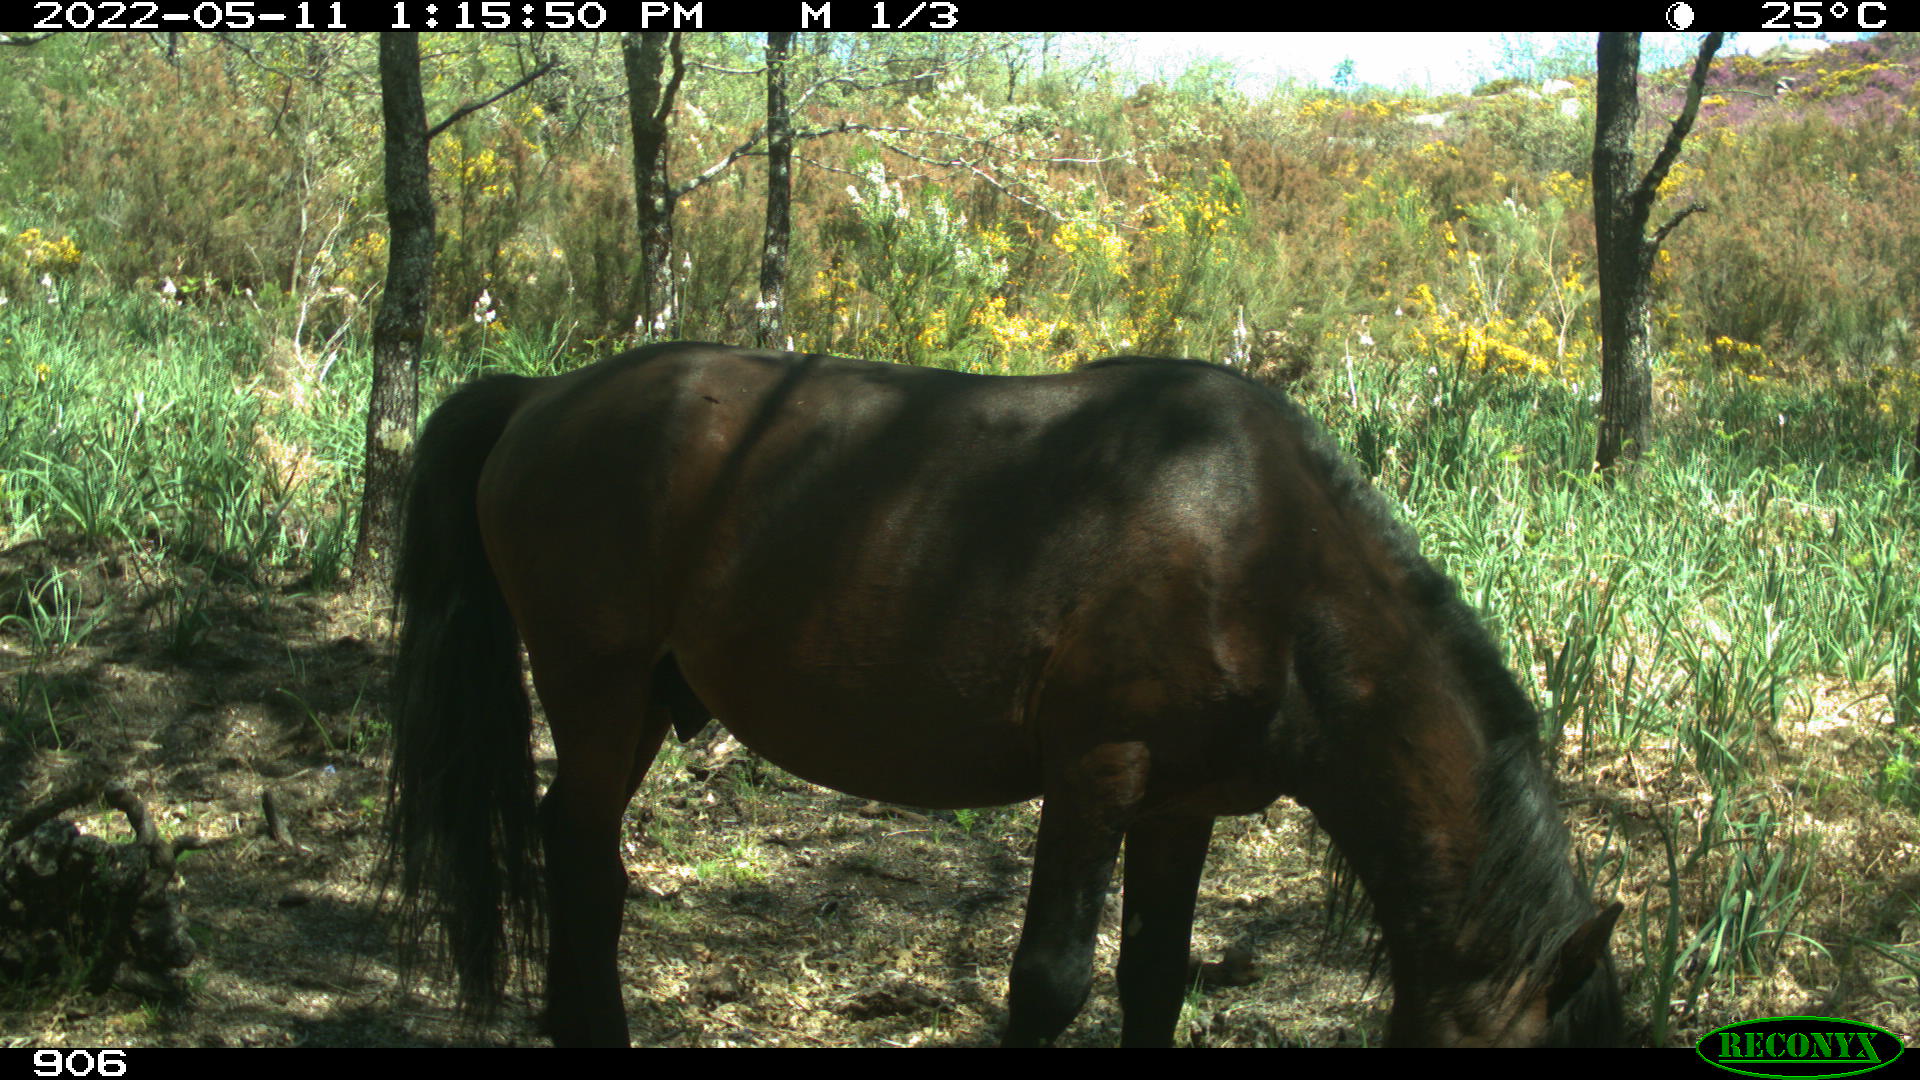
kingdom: Animalia
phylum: Chordata
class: Mammalia
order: Perissodactyla
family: Equidae
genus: Equus
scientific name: Equus caballus
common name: Horse
